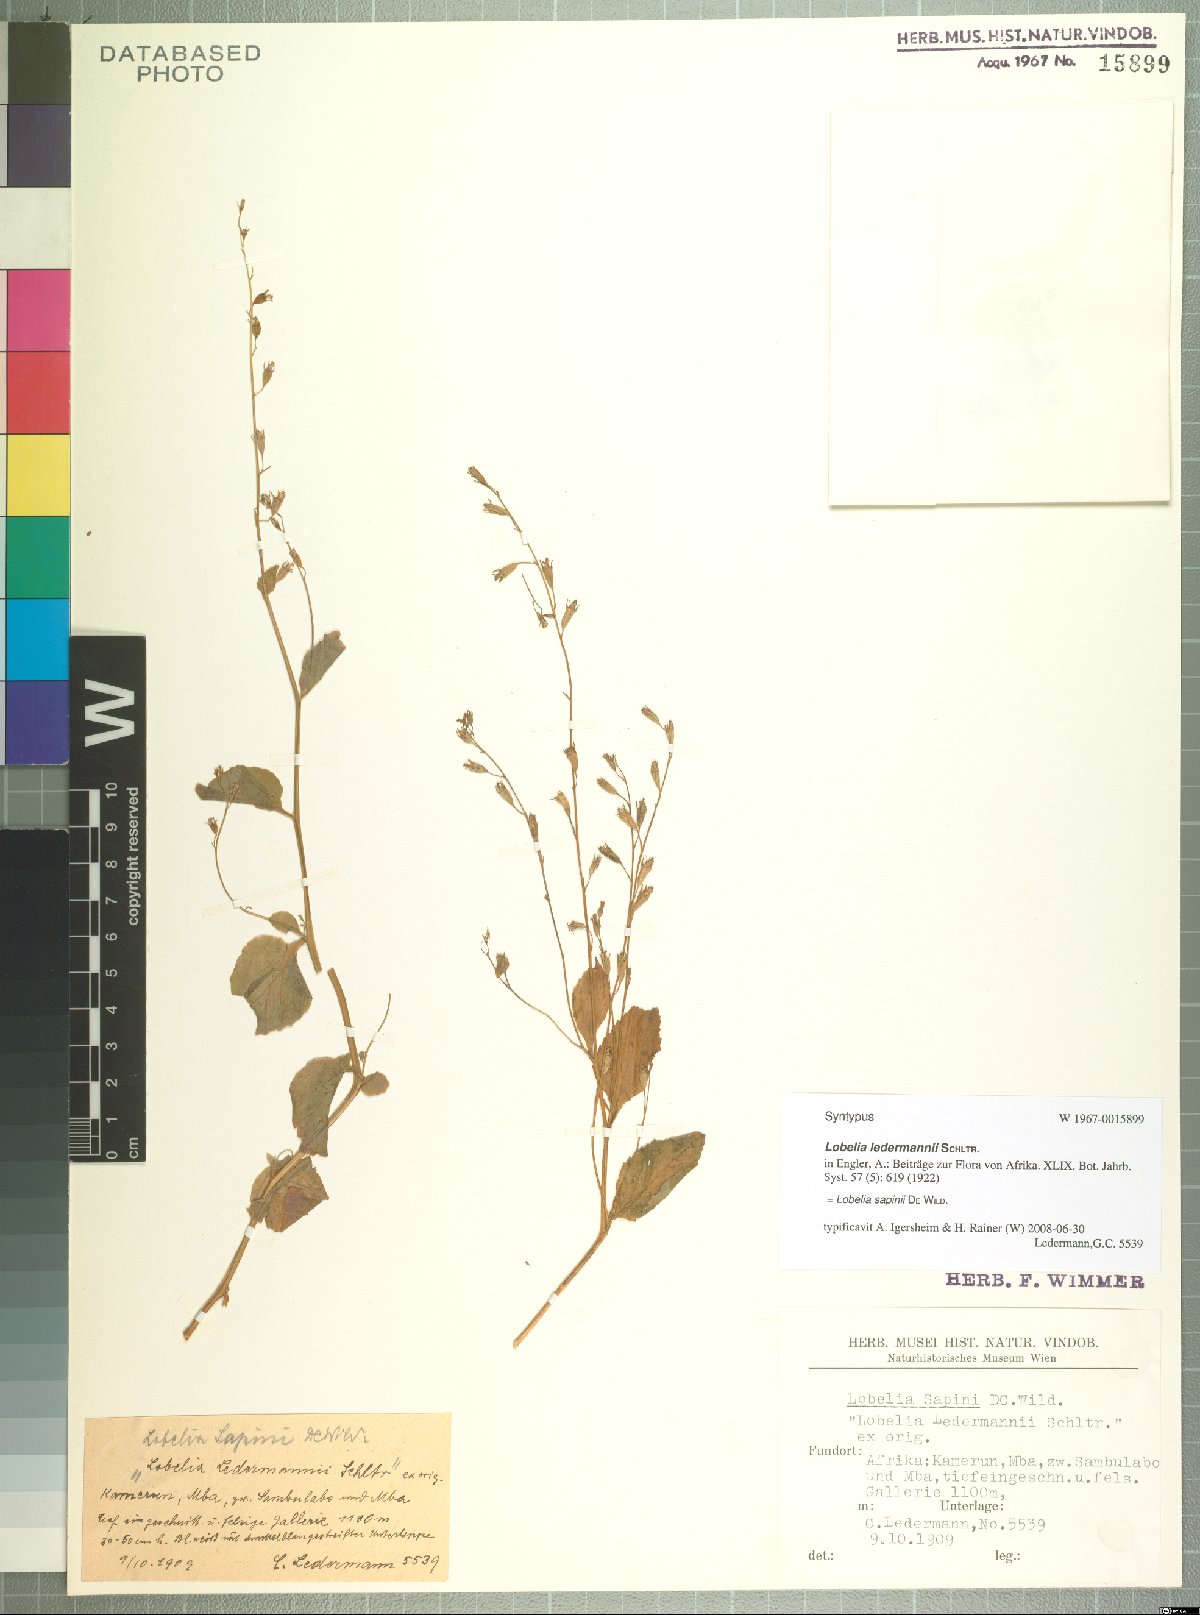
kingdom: Plantae
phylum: Tracheophyta
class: Magnoliopsida
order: Asterales
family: Campanulaceae
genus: Lobelia
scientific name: Lobelia sapinii
